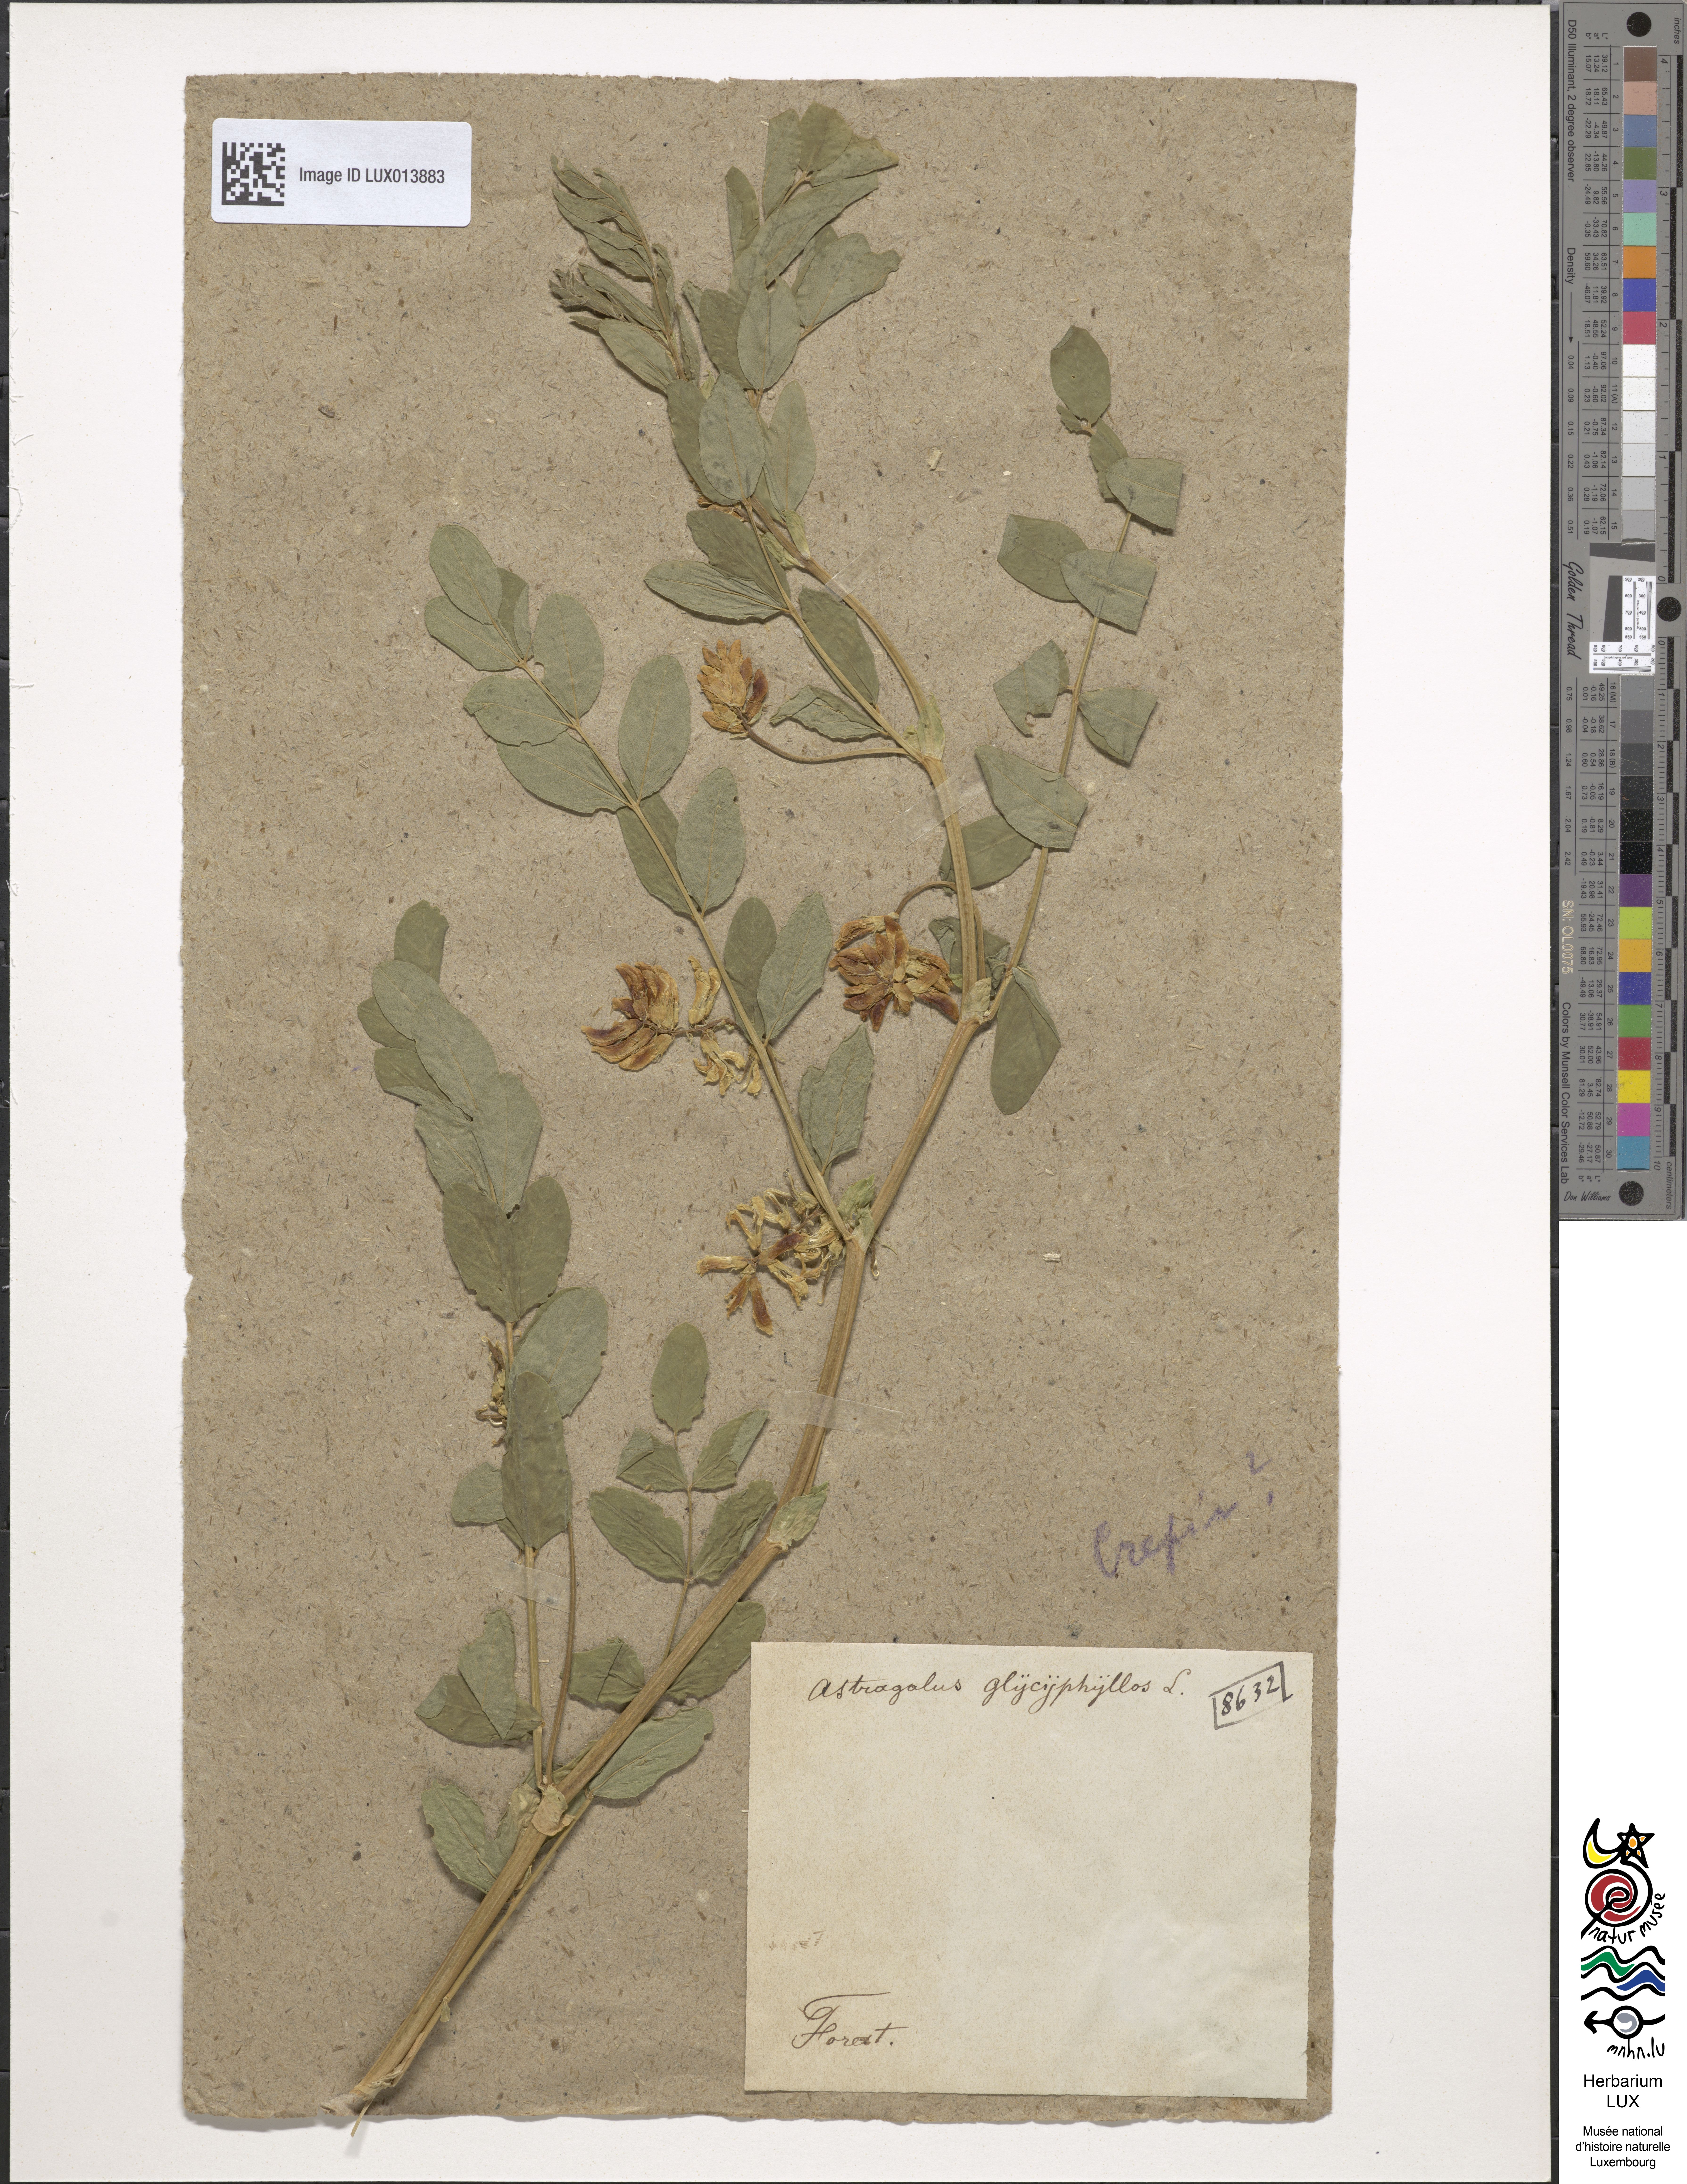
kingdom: Plantae
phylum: Tracheophyta
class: Magnoliopsida
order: Fabales
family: Fabaceae
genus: Astragalus
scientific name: Astragalus glycyphyllos
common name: Wild liquorice
